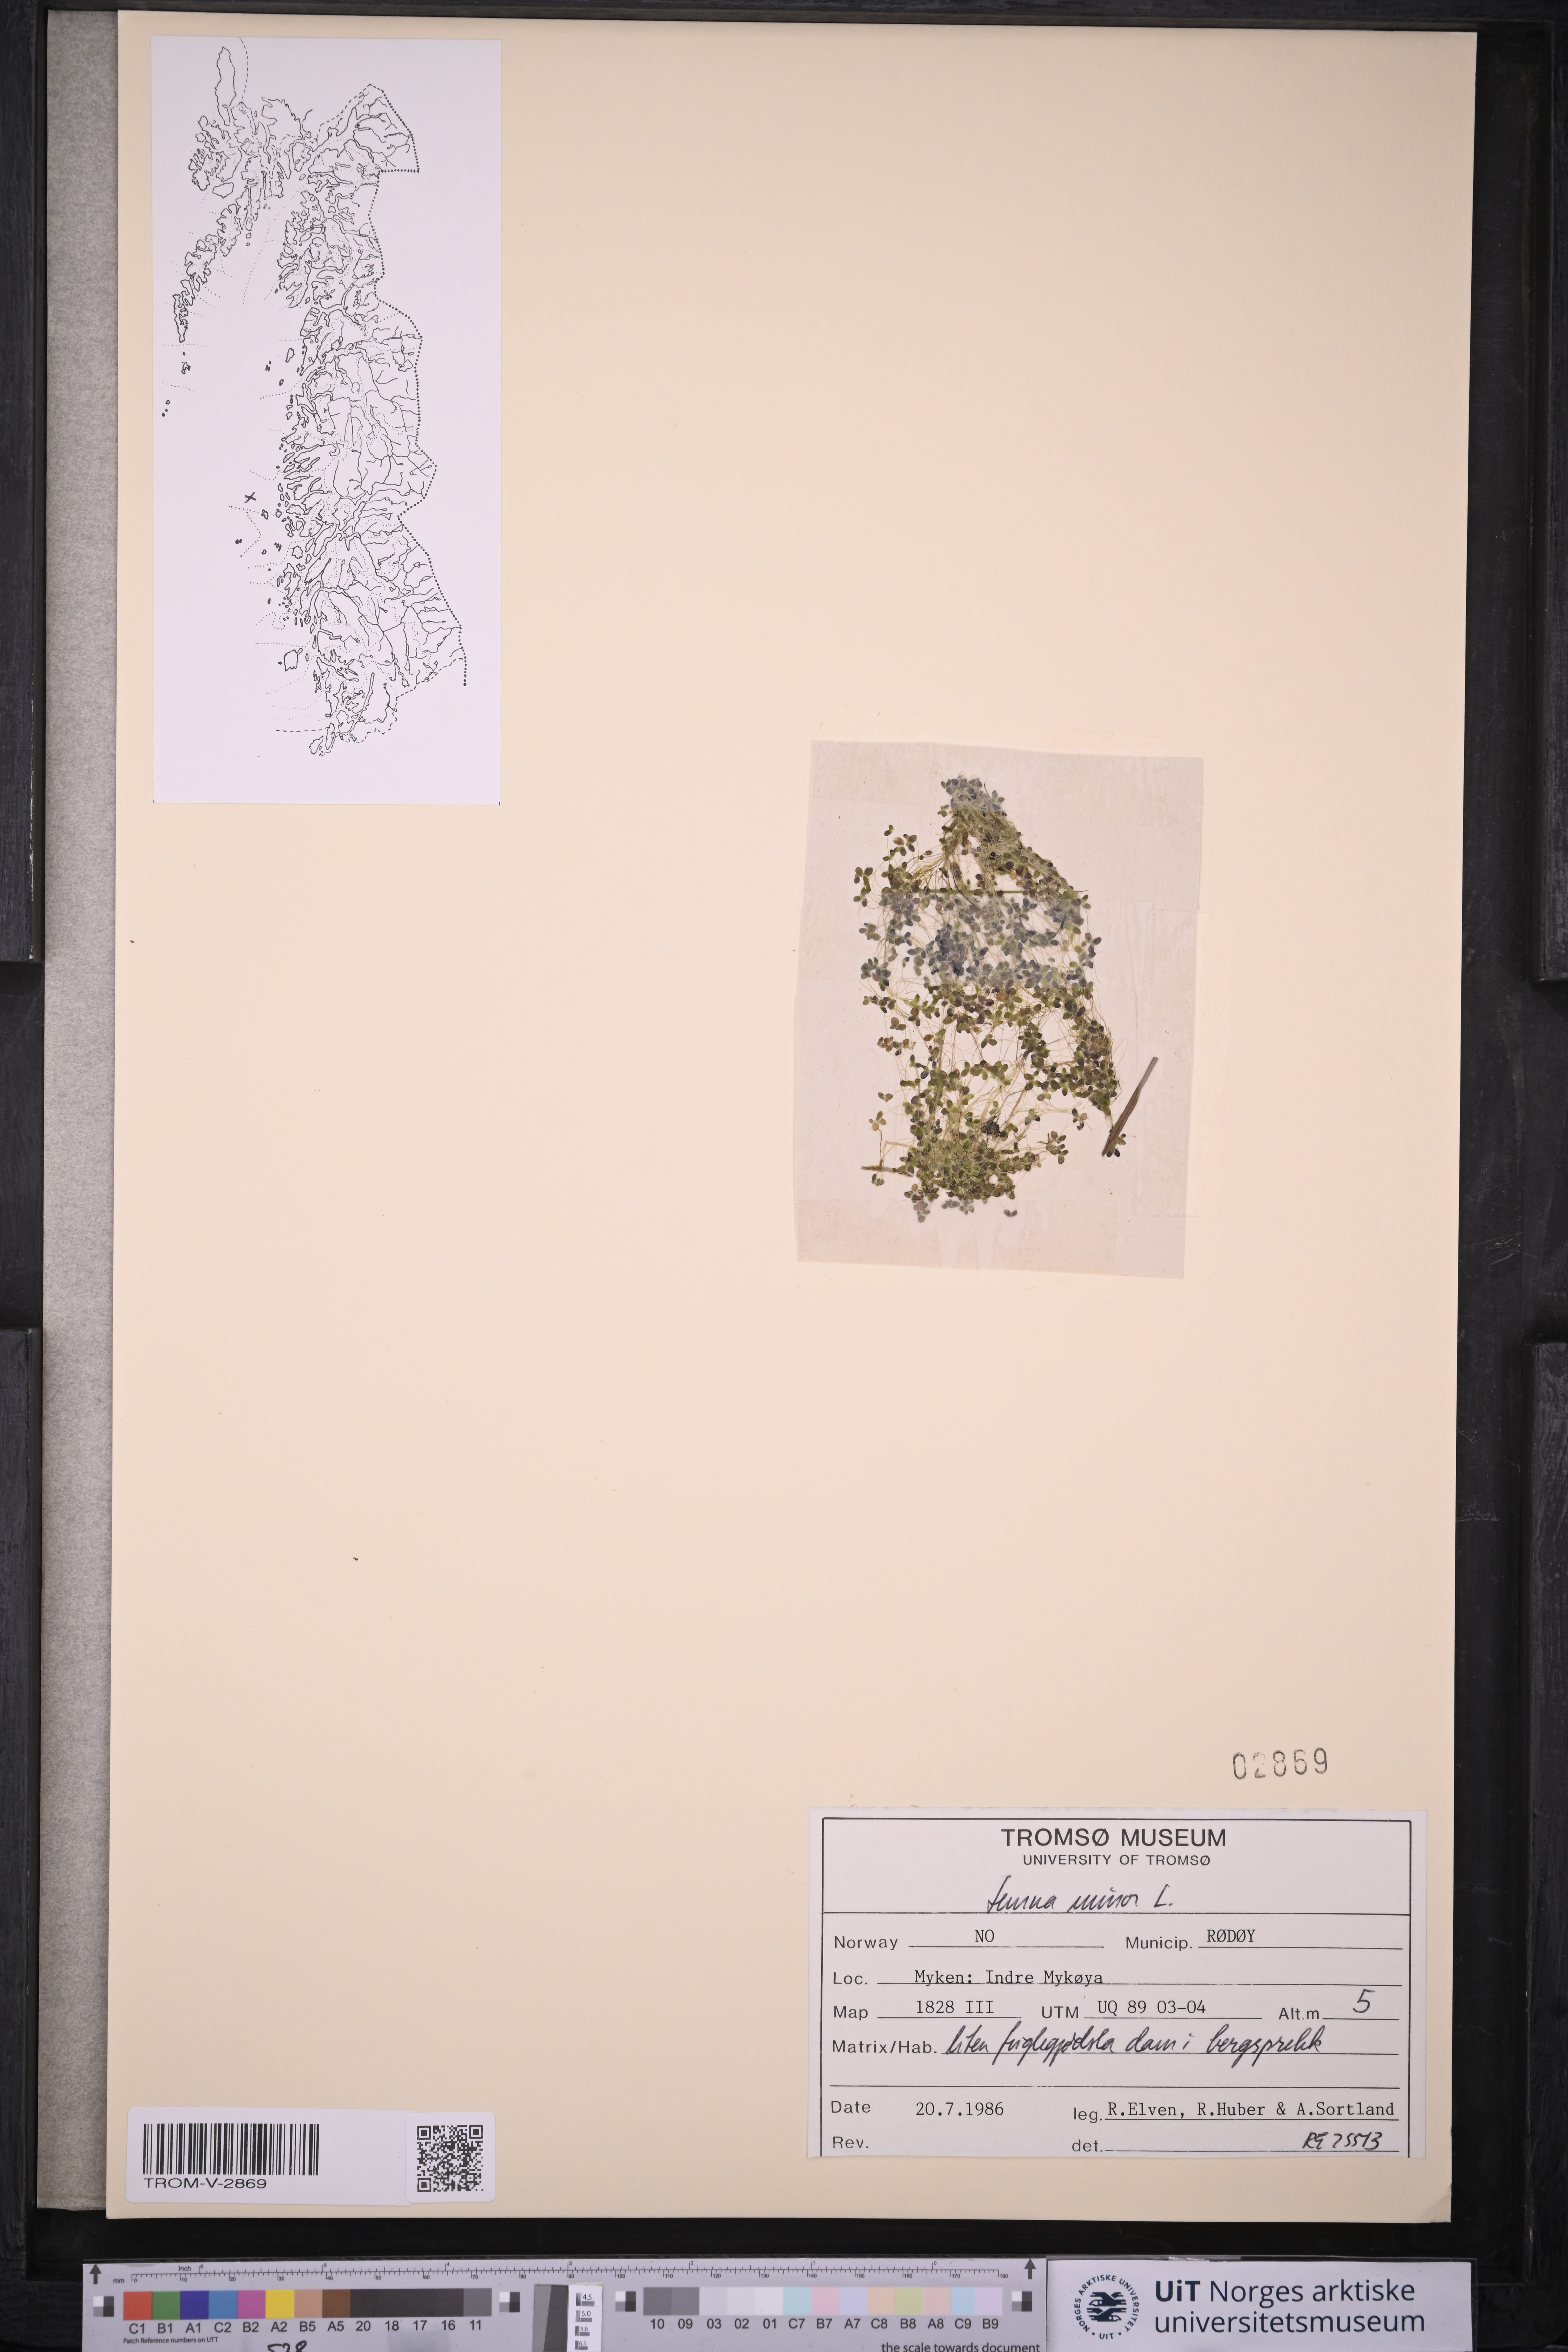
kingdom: Plantae
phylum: Tracheophyta
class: Liliopsida
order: Alismatales
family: Araceae
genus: Lemna
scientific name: Lemna minor
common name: Common duckweed
